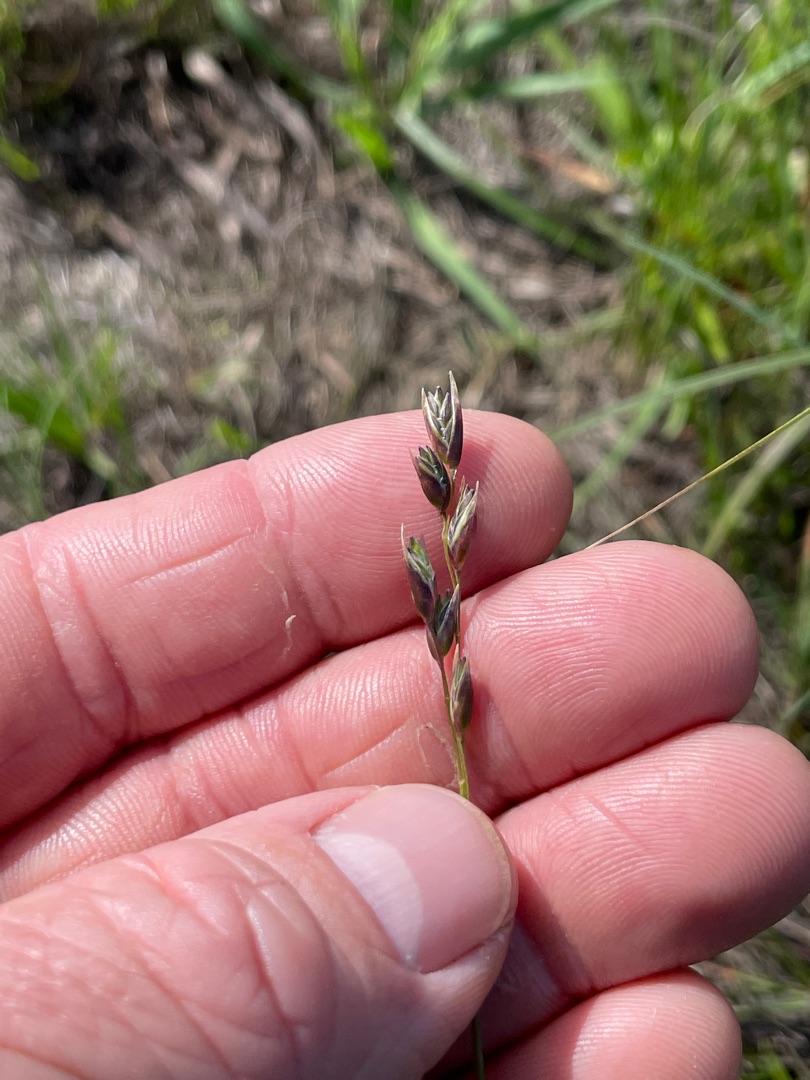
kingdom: Plantae
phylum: Tracheophyta
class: Liliopsida
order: Poales
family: Poaceae
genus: Danthonia
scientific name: Danthonia decumbens
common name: Tandbælg
